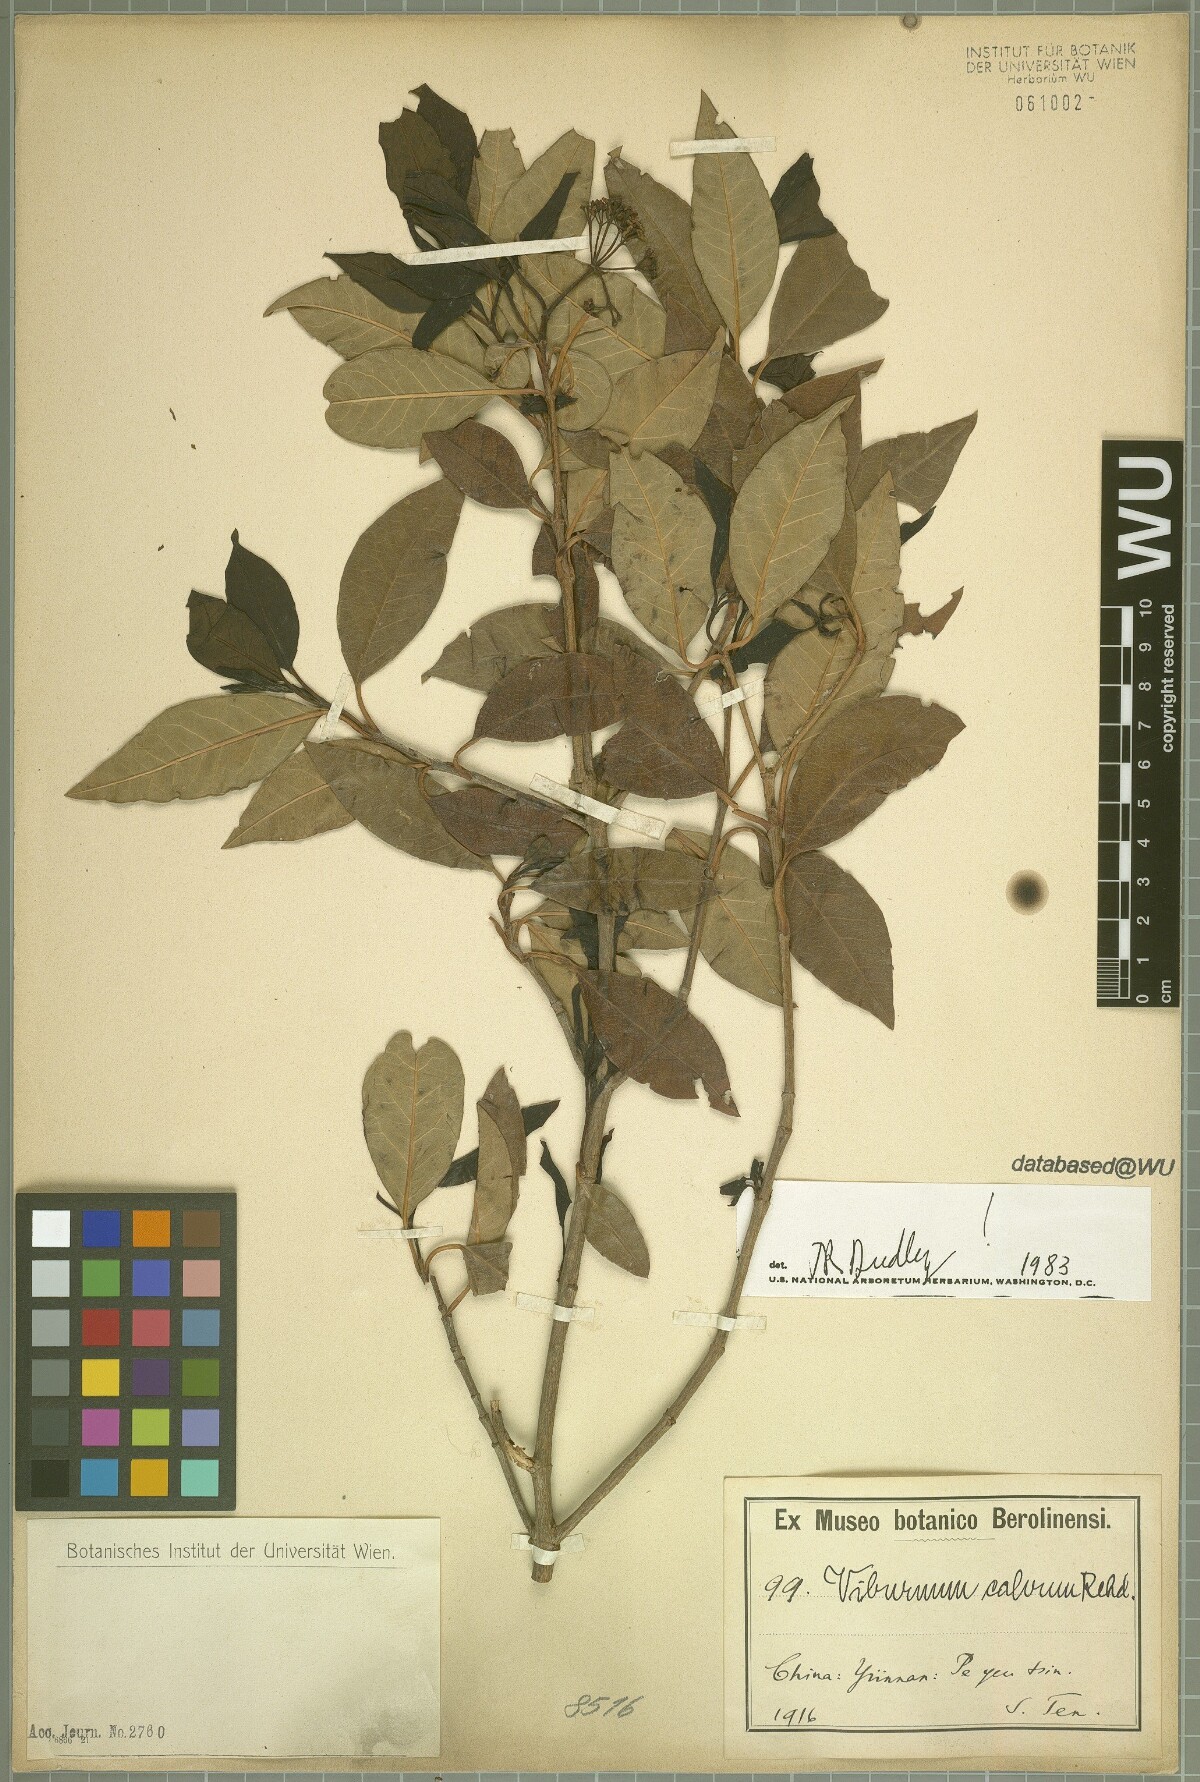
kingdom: Plantae
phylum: Tracheophyta
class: Magnoliopsida
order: Dipsacales
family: Viburnaceae
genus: Viburnum
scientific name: Viburnum atrocyaneum
